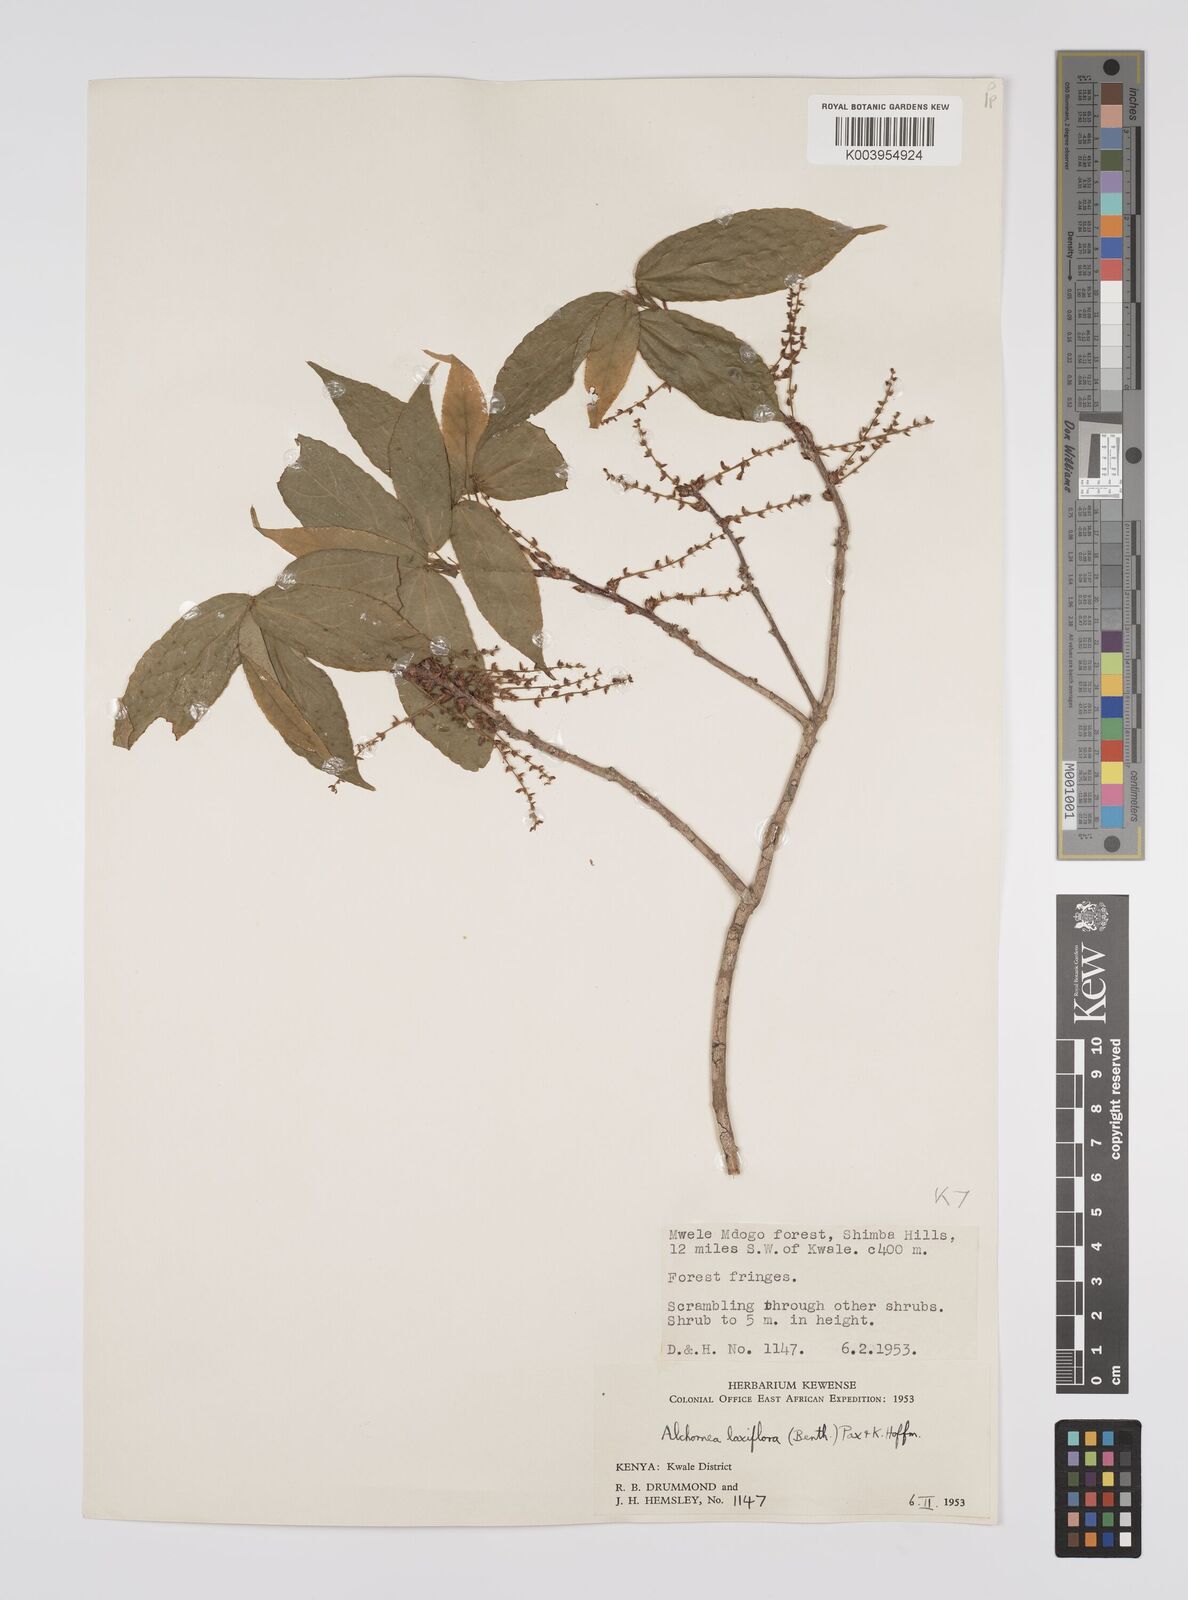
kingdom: Plantae
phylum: Tracheophyta
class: Magnoliopsida
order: Malpighiales
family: Euphorbiaceae
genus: Alchornea
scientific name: Alchornea laxiflora
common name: Lowveld bead-string
